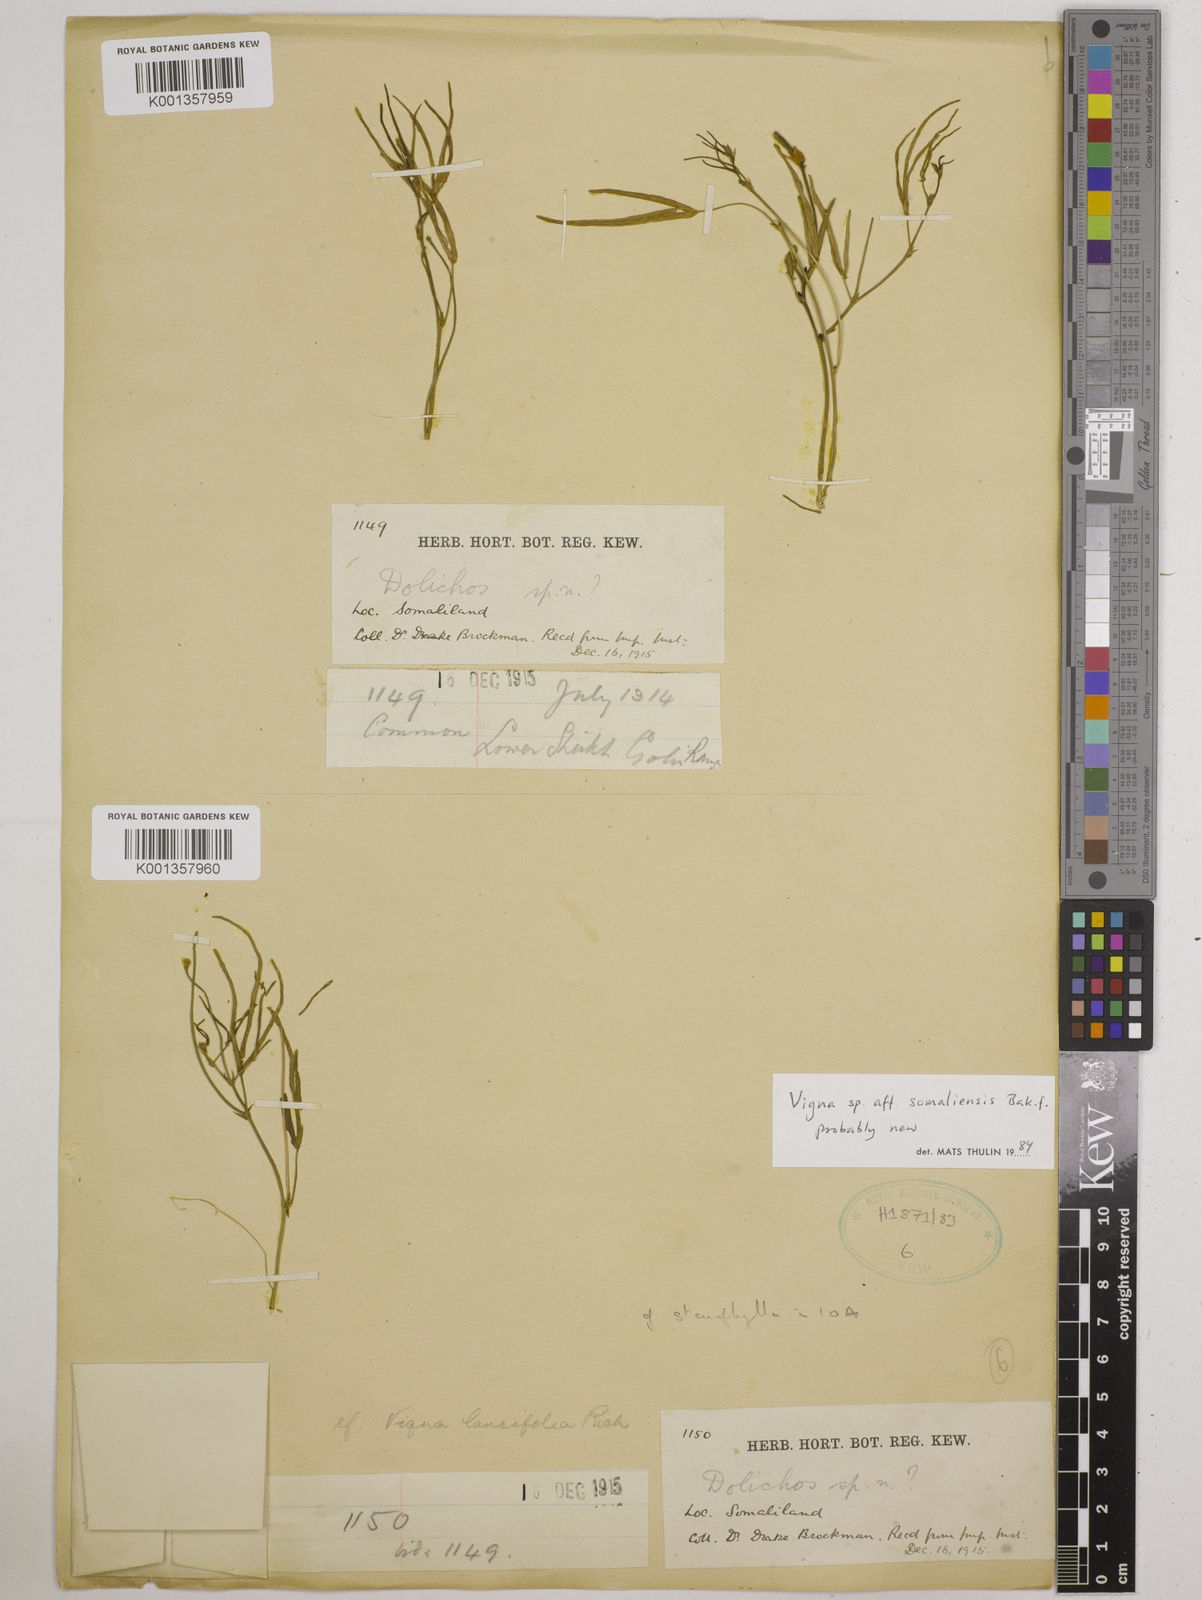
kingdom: Plantae
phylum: Tracheophyta
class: Magnoliopsida
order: Fabales
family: Fabaceae
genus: Vigna
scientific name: Vigna somaliensis
